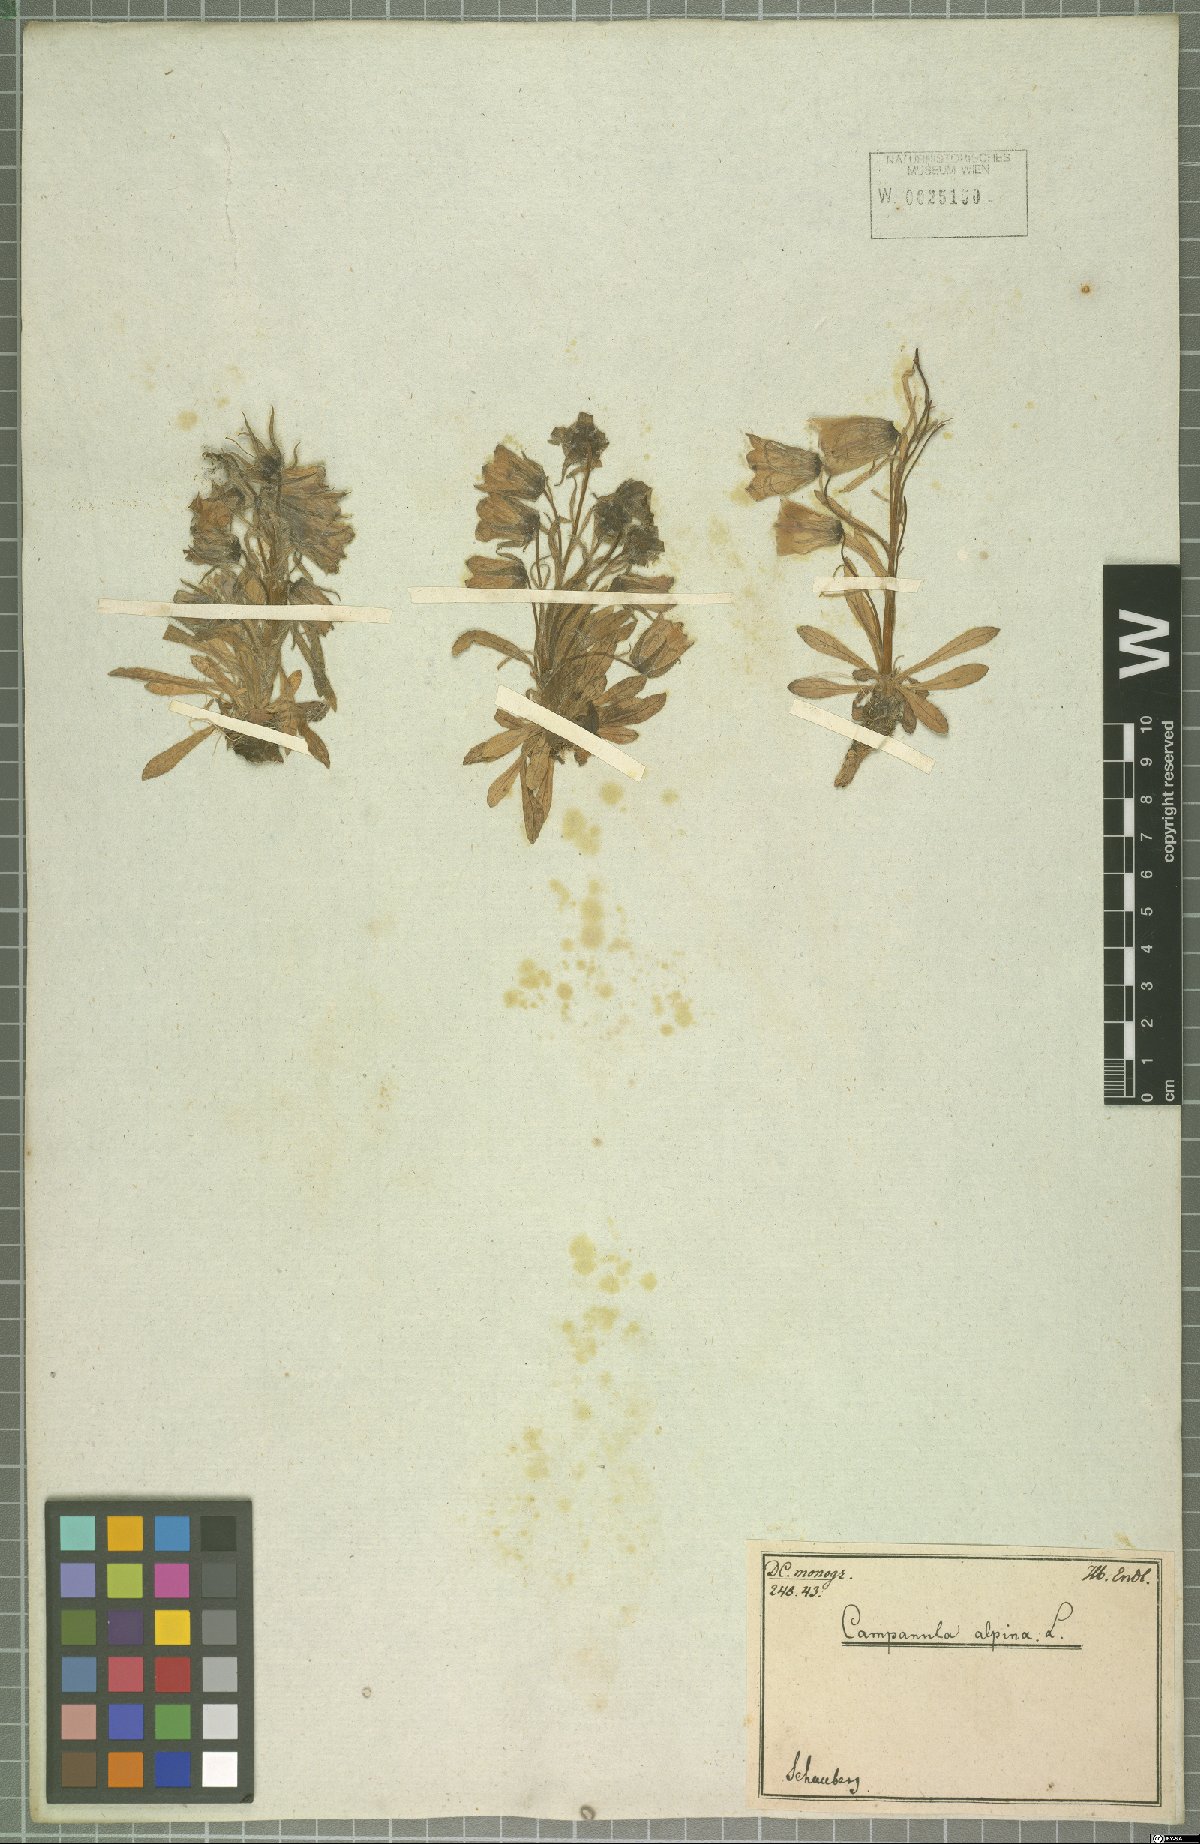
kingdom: Plantae
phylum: Tracheophyta
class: Magnoliopsida
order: Asterales
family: Campanulaceae
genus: Campanula
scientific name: Campanula alpina
